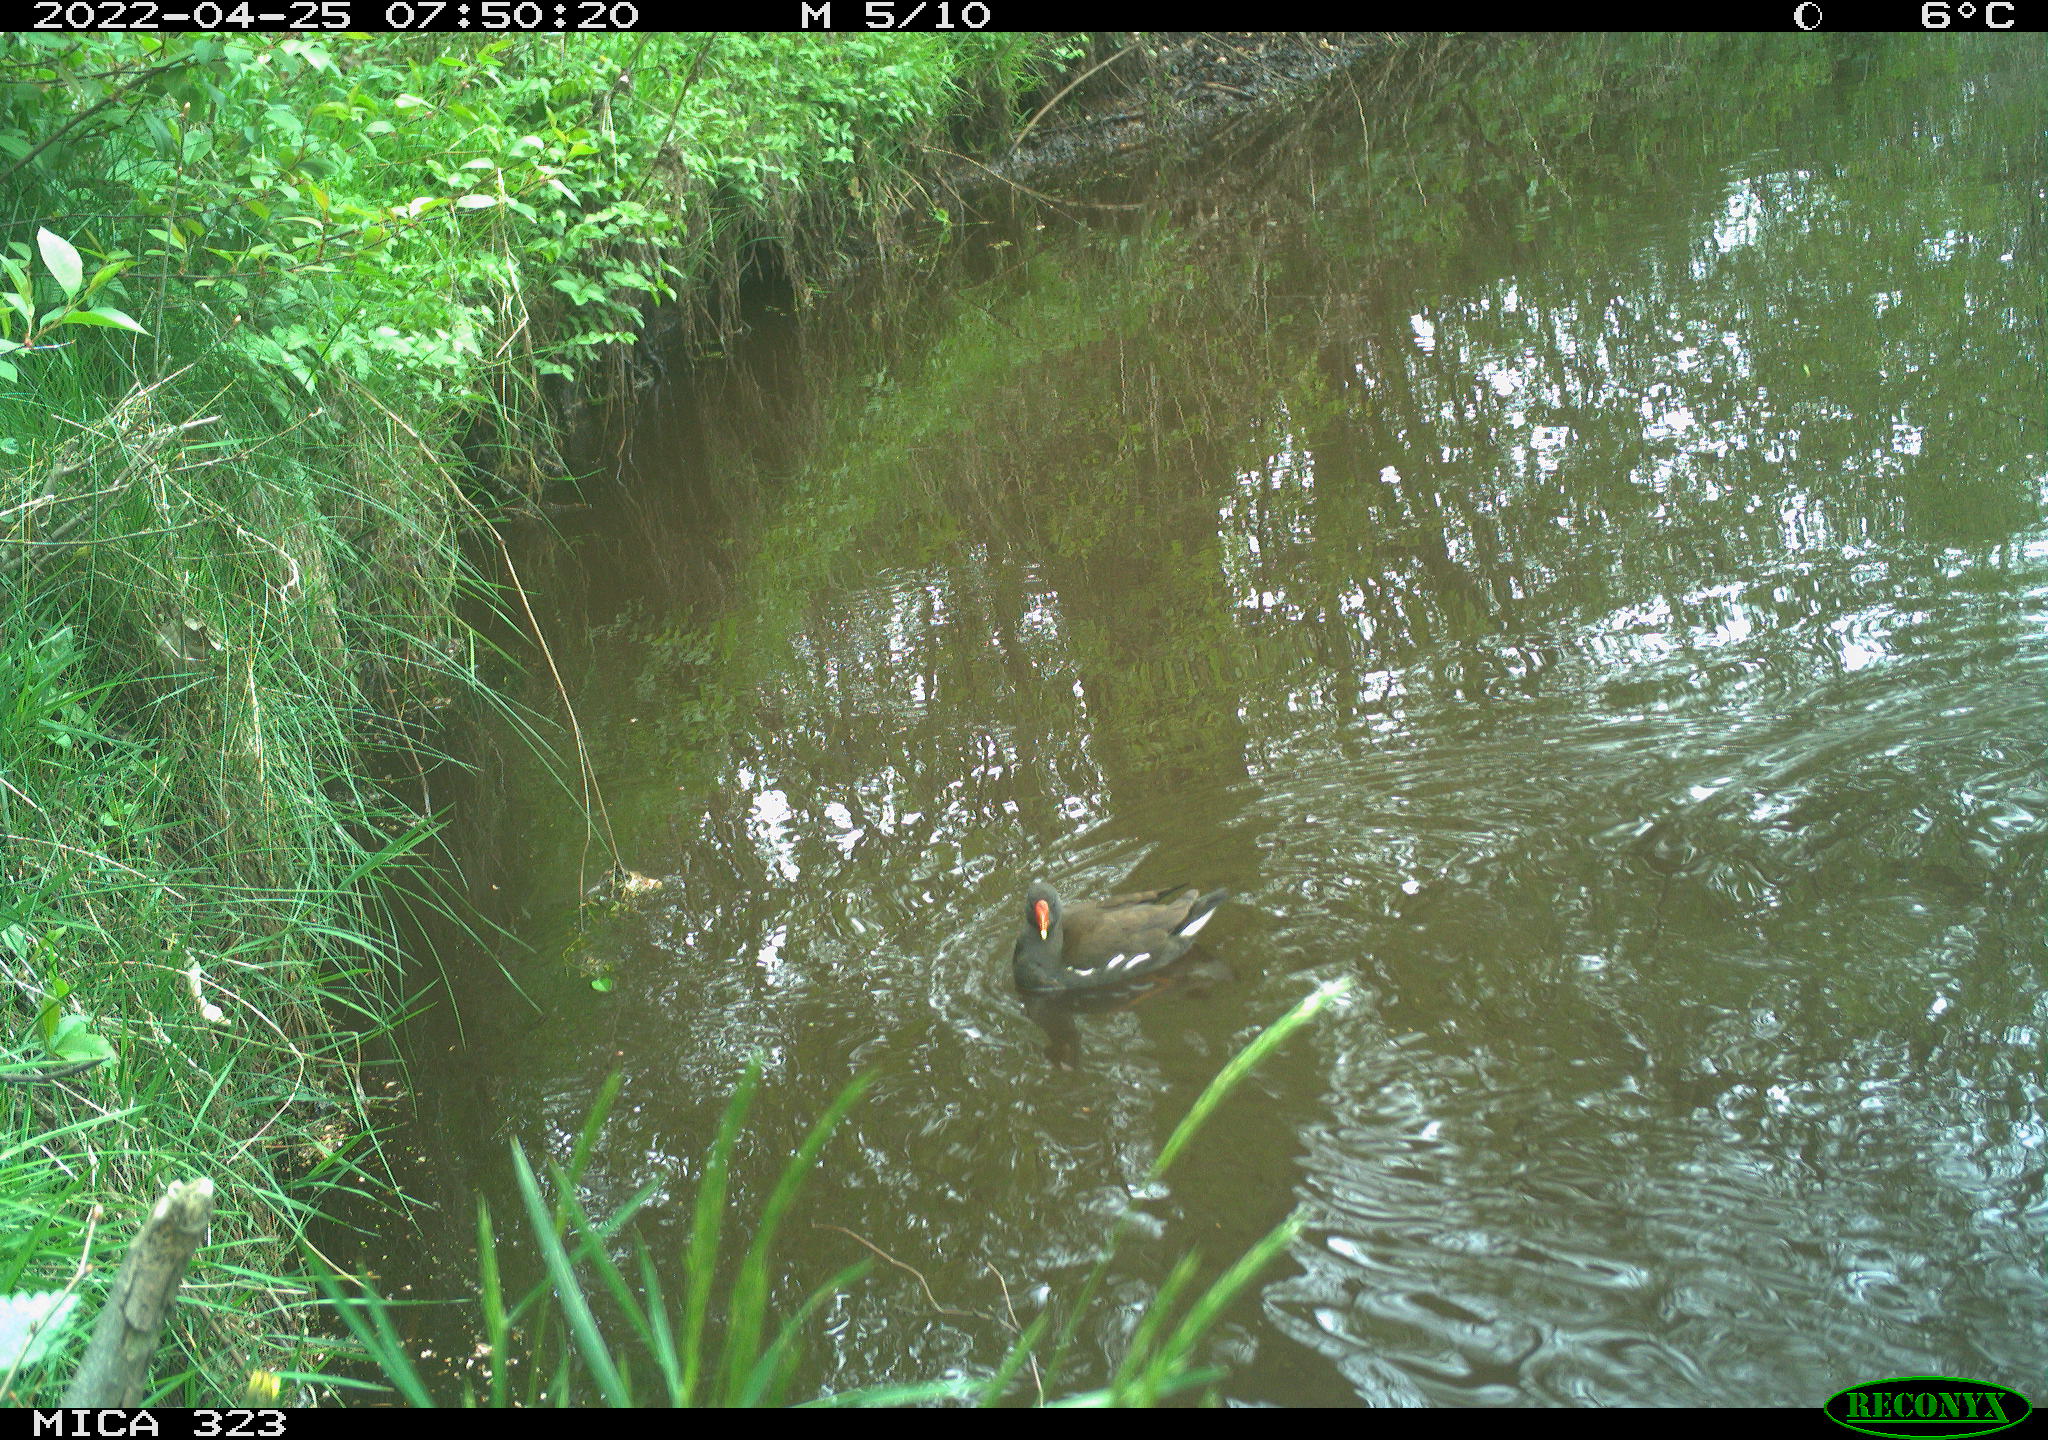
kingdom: Animalia
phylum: Chordata
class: Aves
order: Gruiformes
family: Rallidae
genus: Gallinula
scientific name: Gallinula chloropus
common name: Common moorhen
